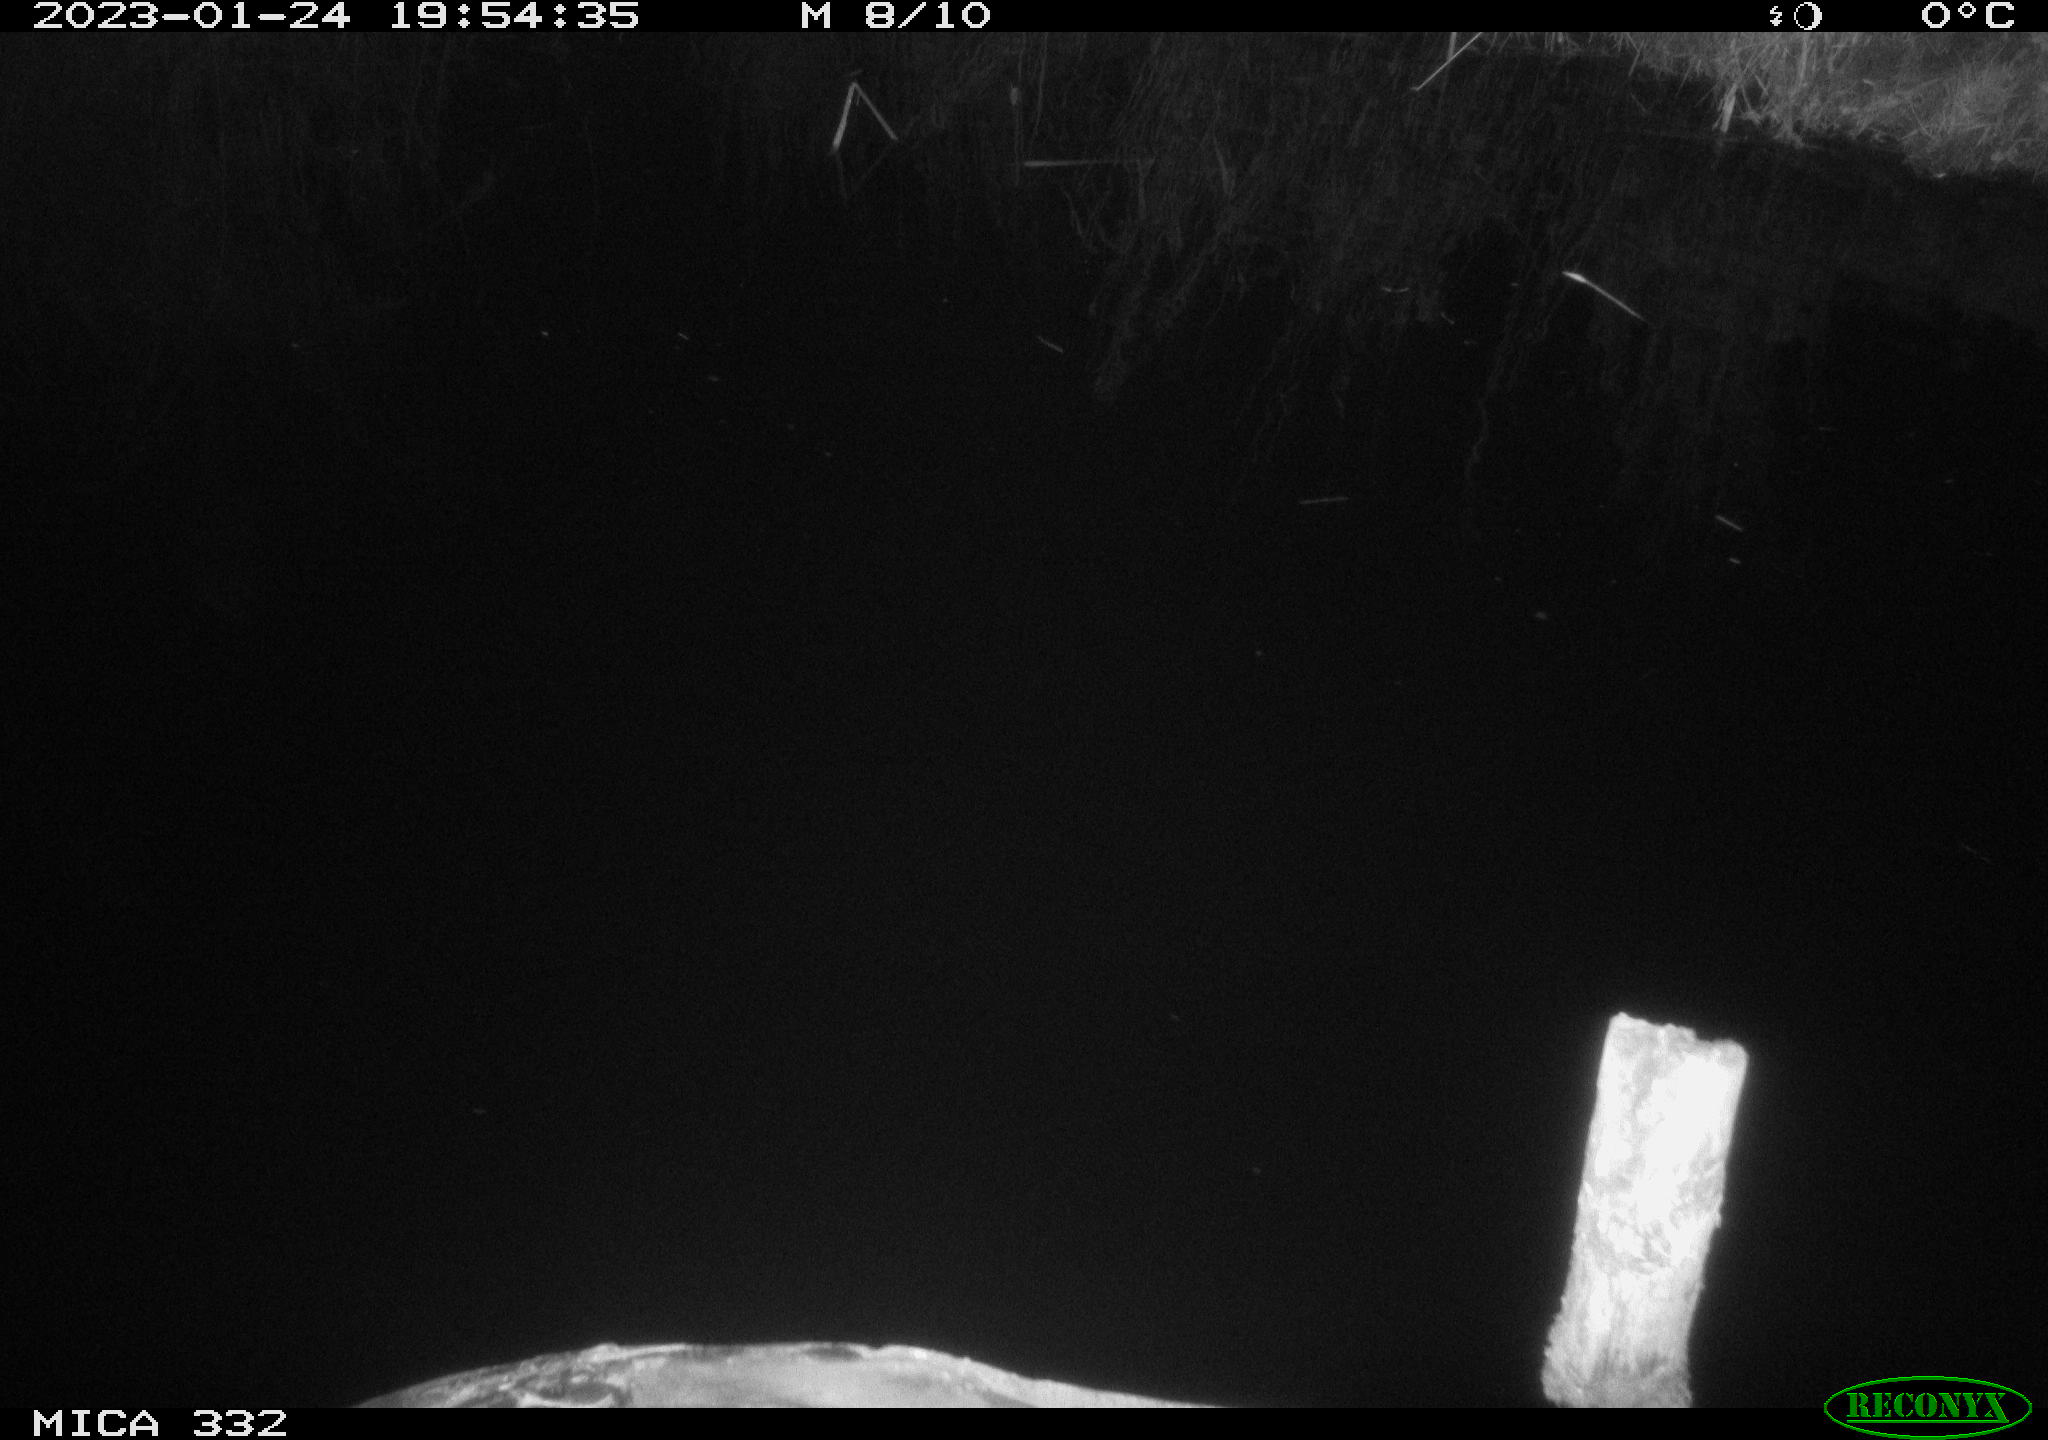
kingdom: Animalia
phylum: Chordata
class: Aves
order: Anseriformes
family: Anatidae
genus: Anas
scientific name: Anas
